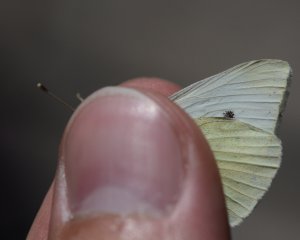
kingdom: Animalia
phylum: Arthropoda
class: Insecta
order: Lepidoptera
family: Pieridae
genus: Pieris
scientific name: Pieris rapae
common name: Cabbage White
